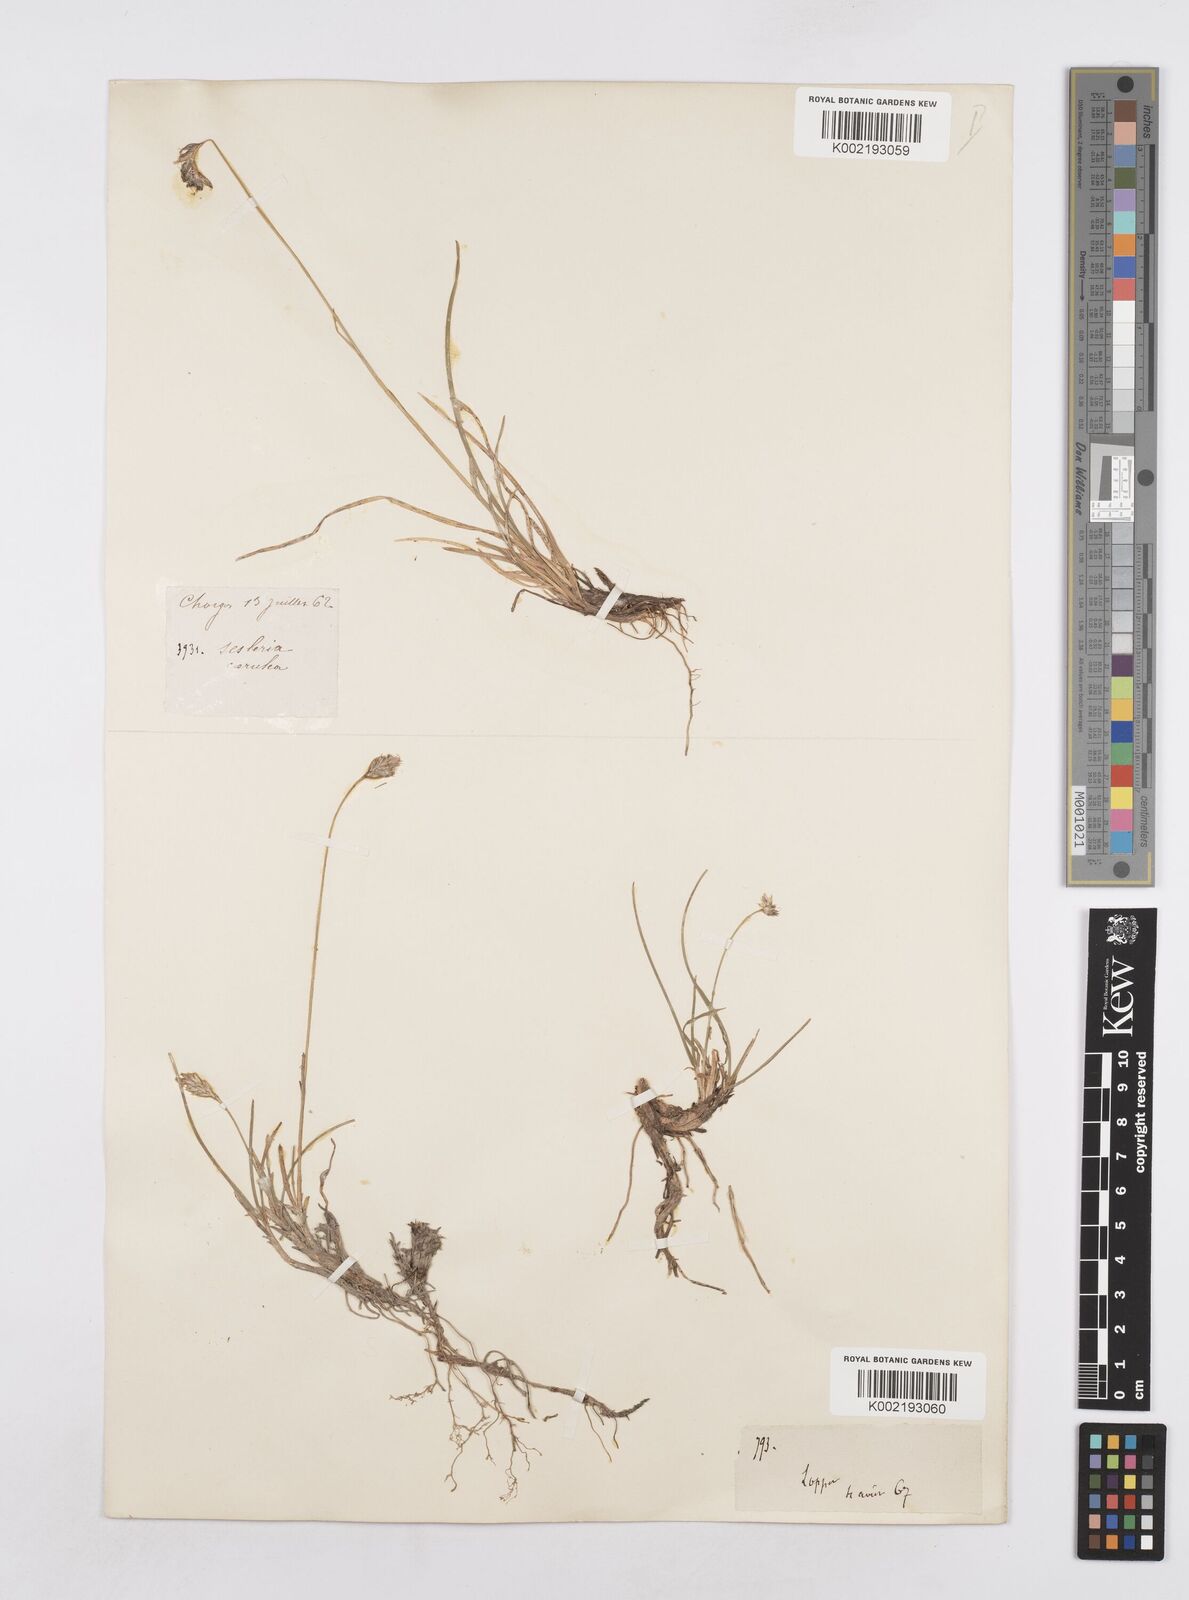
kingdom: Plantae
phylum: Tracheophyta
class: Liliopsida
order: Poales
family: Poaceae
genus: Sesleria
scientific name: Sesleria caerulea
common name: Blue moor-grass
